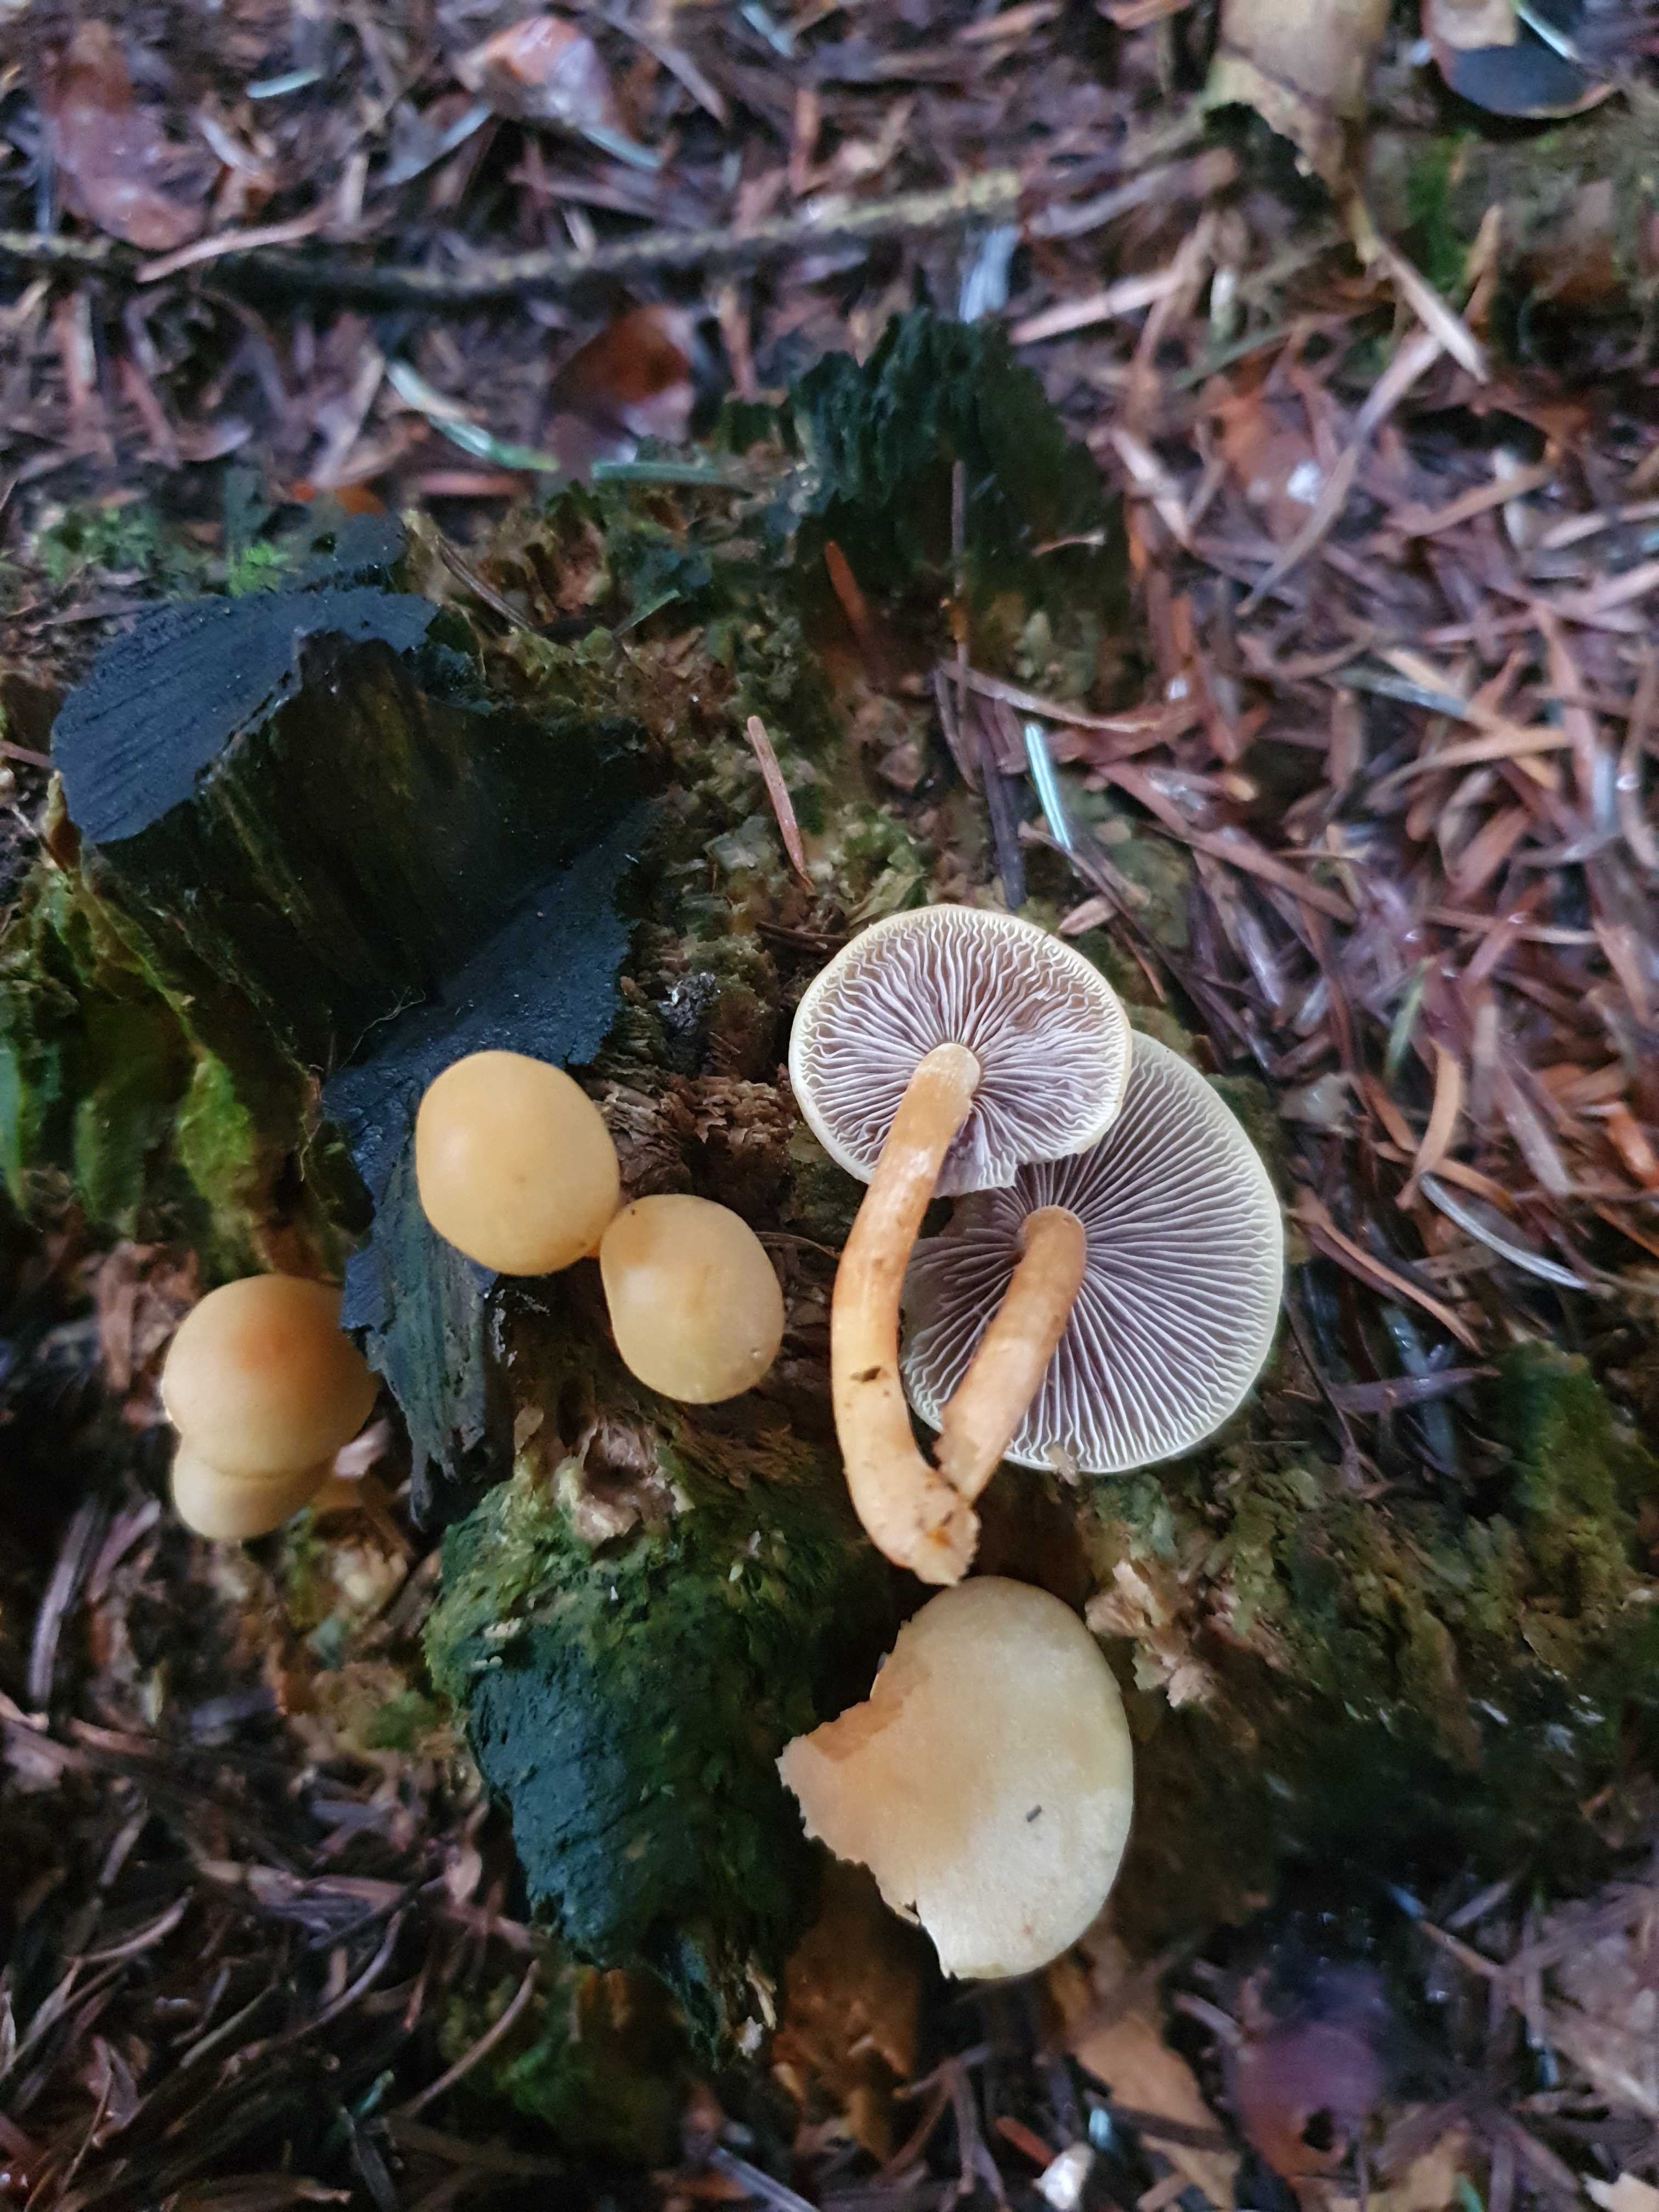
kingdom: Fungi
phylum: Basidiomycota
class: Agaricomycetes
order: Agaricales
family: Strophariaceae
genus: Hypholoma
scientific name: Hypholoma capnoides
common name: gran-svovlhat
